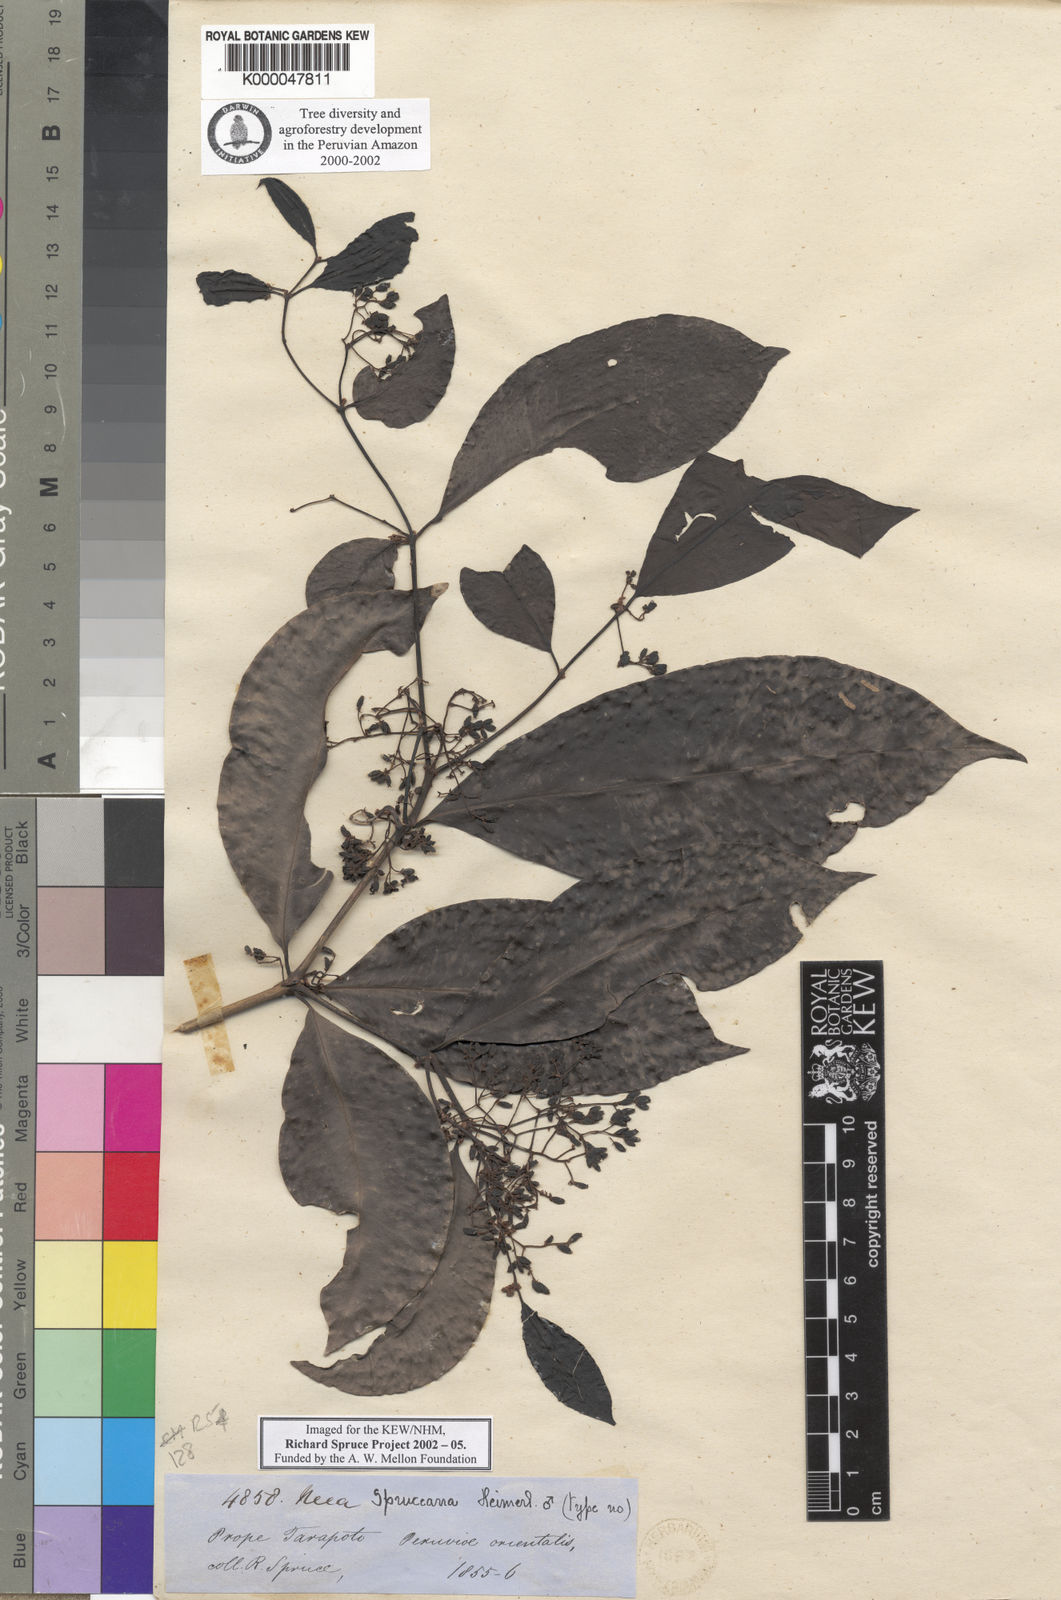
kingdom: Plantae
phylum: Tracheophyta
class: Magnoliopsida
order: Caryophyllales
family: Nyctaginaceae
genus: Neea
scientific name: Neea spruceana
